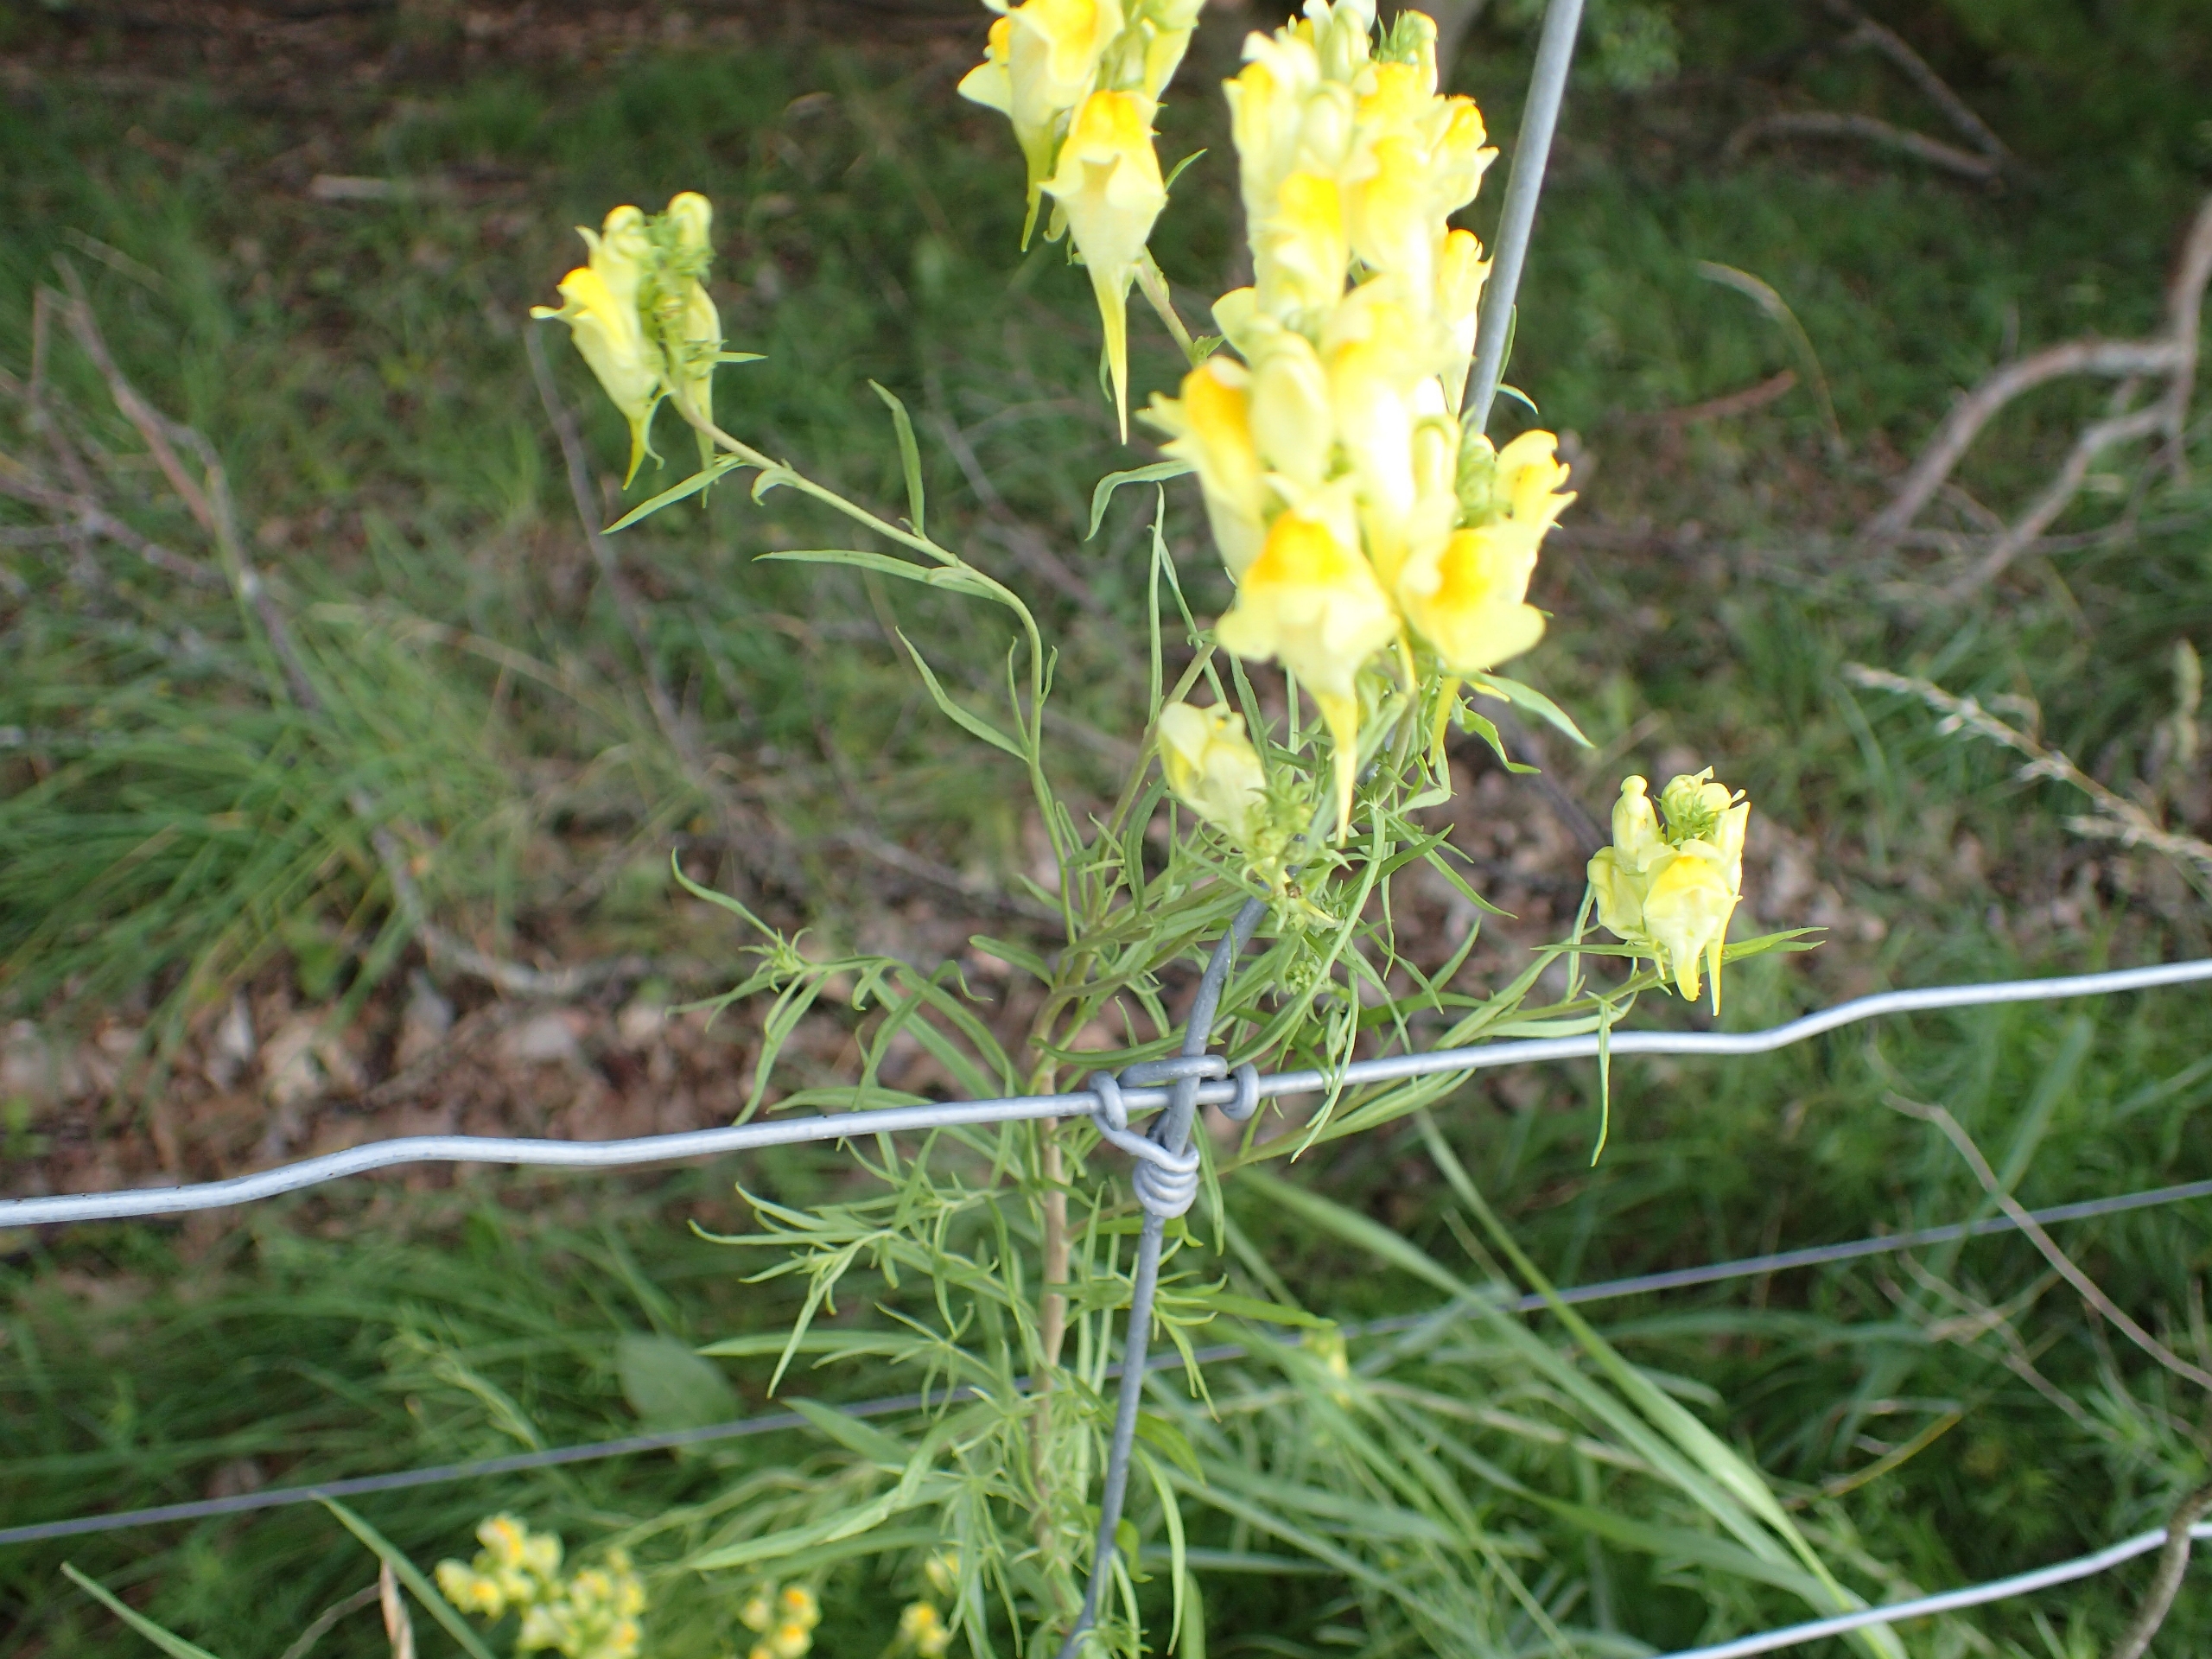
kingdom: Plantae
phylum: Tracheophyta
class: Magnoliopsida
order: Lamiales
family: Plantaginaceae
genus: Linaria
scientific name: Linaria vulgaris
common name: Almindelig torskemund
